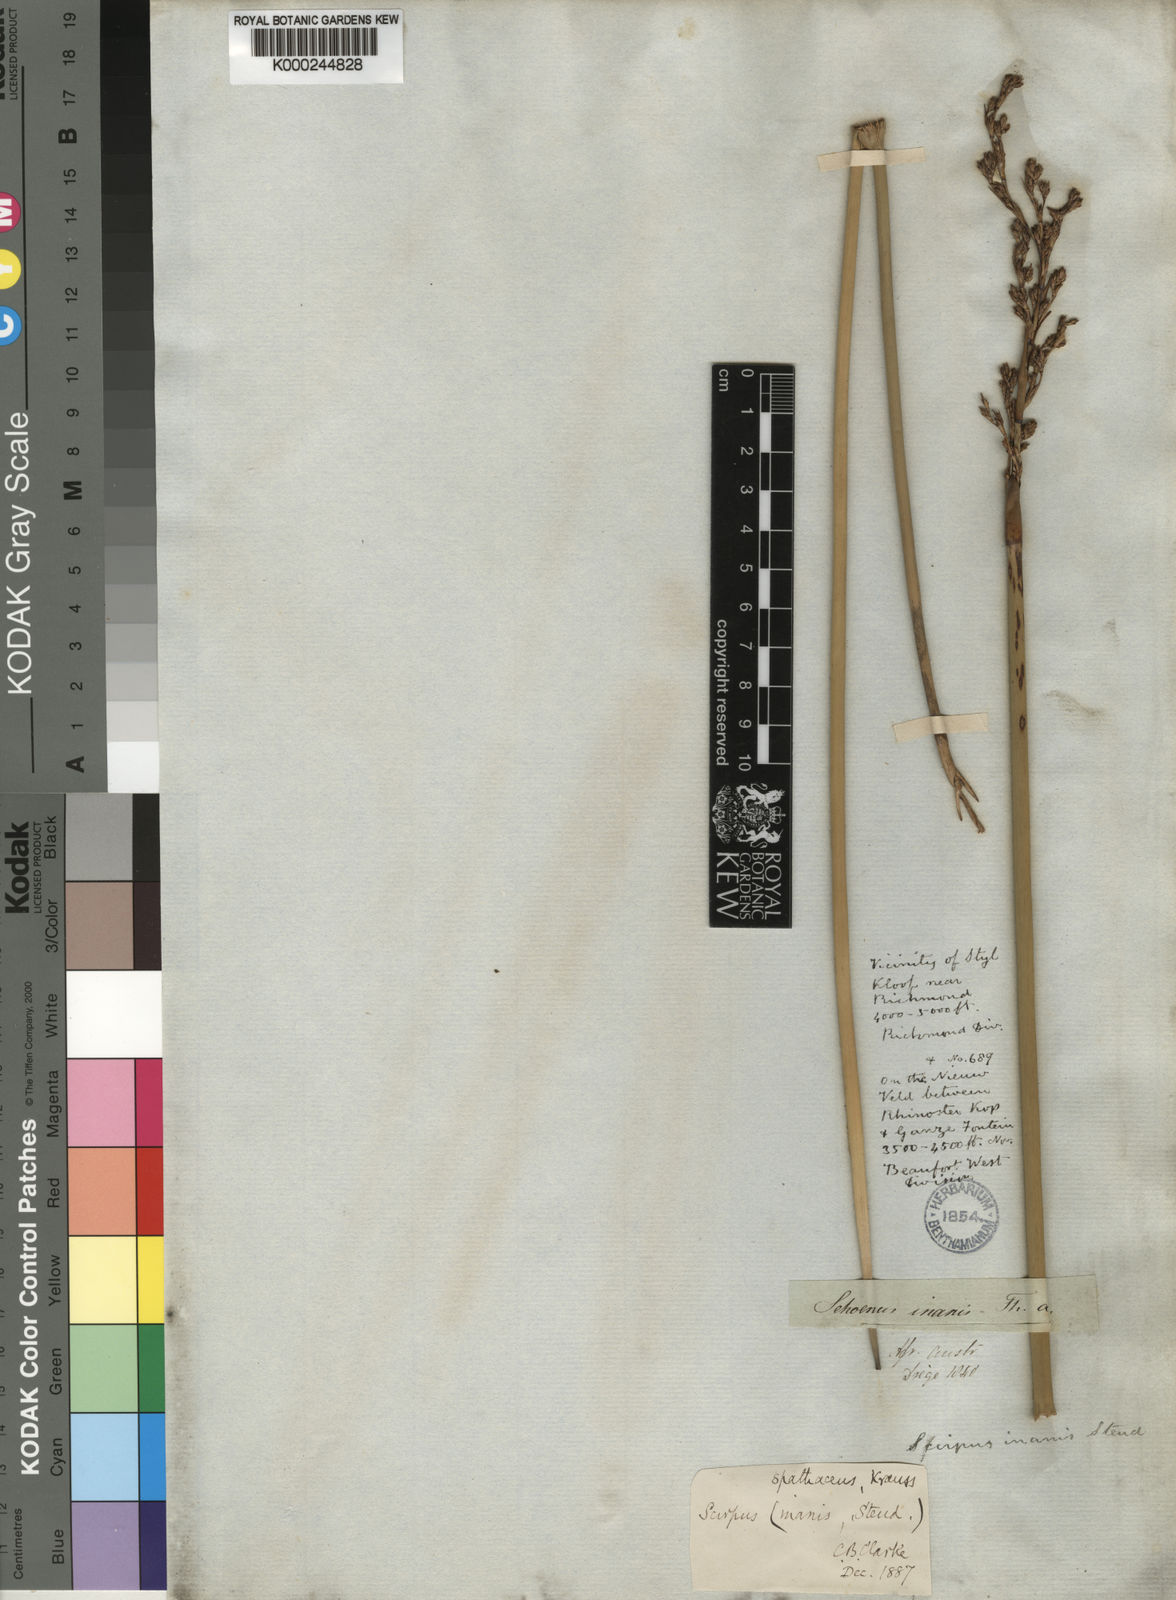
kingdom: Plantae
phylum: Tracheophyta
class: Liliopsida
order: Poales
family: Cyperaceae
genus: Pseudoschoenus
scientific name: Pseudoschoenus inanis
